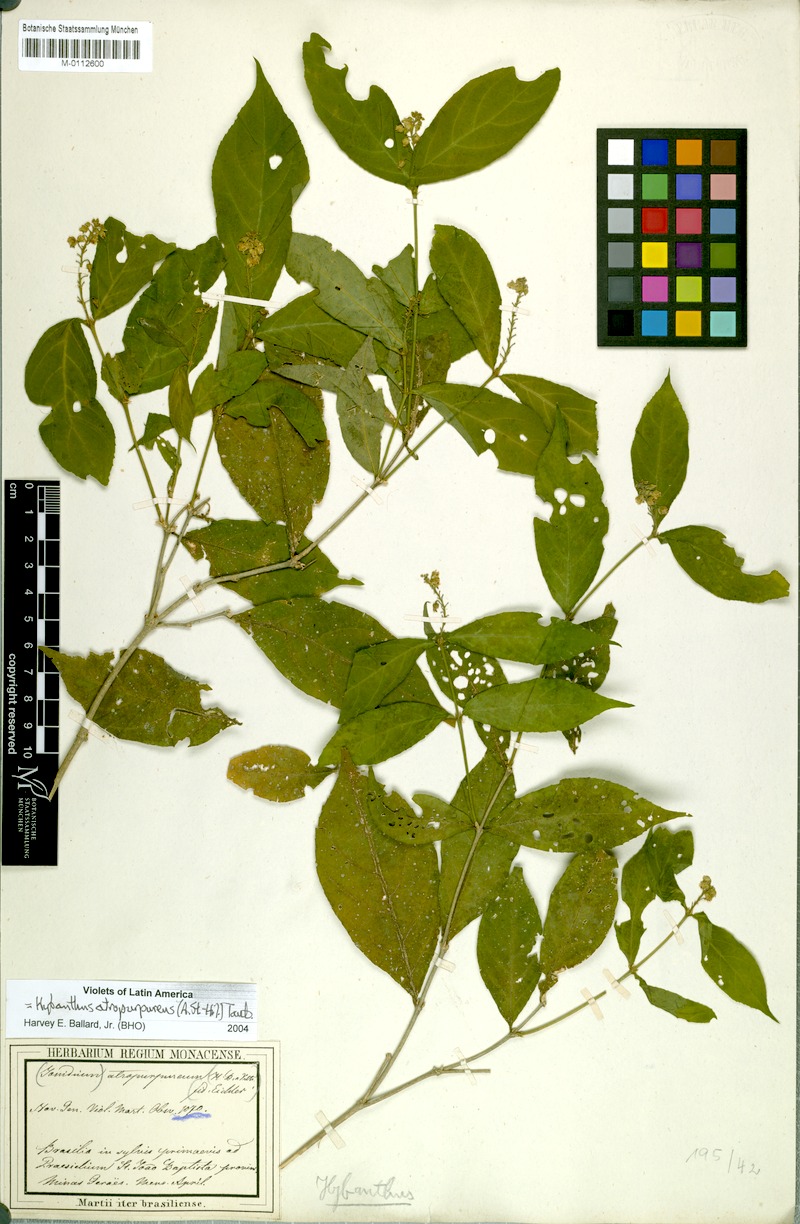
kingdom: Plantae
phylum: Tracheophyta
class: Magnoliopsida
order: Malpighiales
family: Violaceae
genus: Pombalia
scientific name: Pombalia atropurpurea
